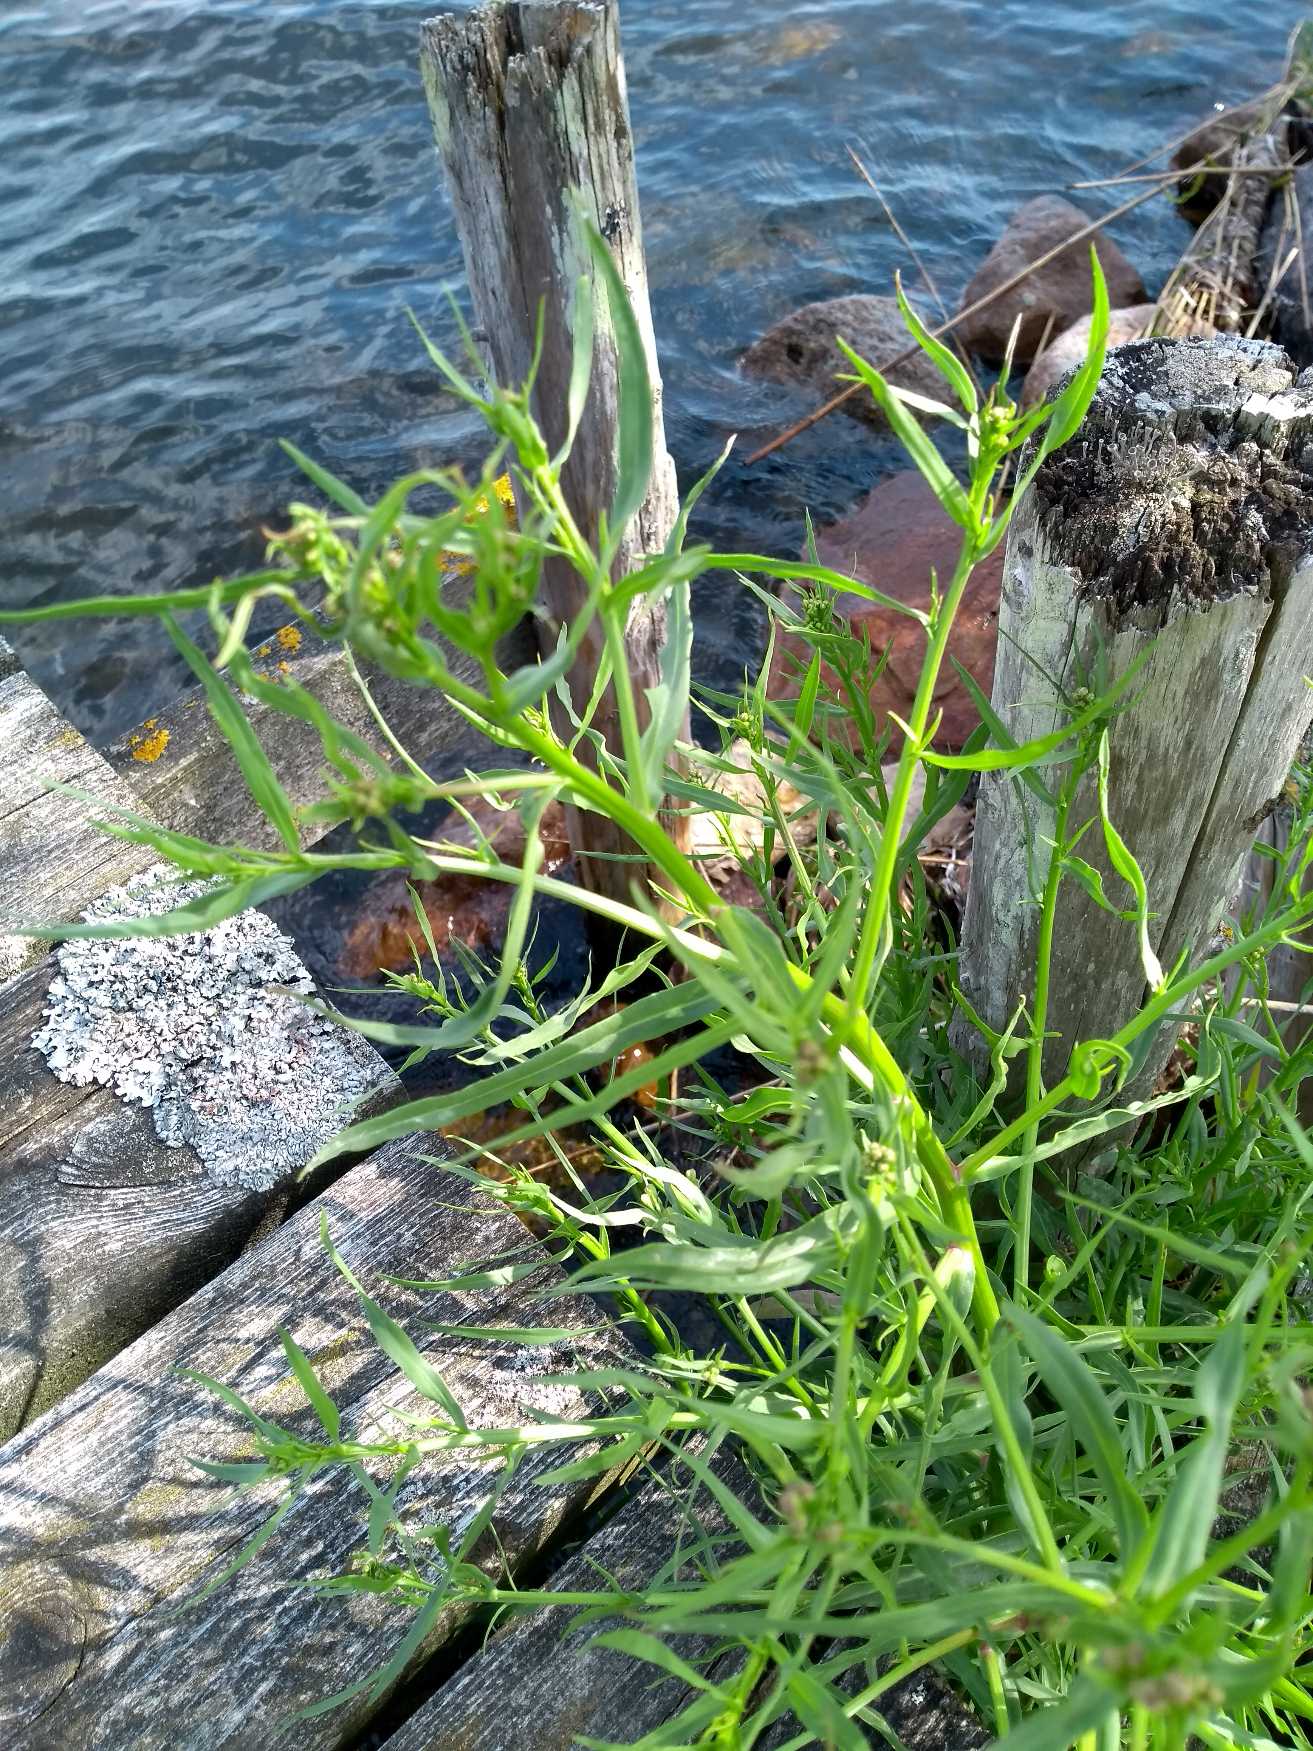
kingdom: Plantae
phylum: Tracheophyta
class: Magnoliopsida
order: Asterales
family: Asteraceae
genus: Tripolium
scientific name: Tripolium pannonicum
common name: Strandasters
